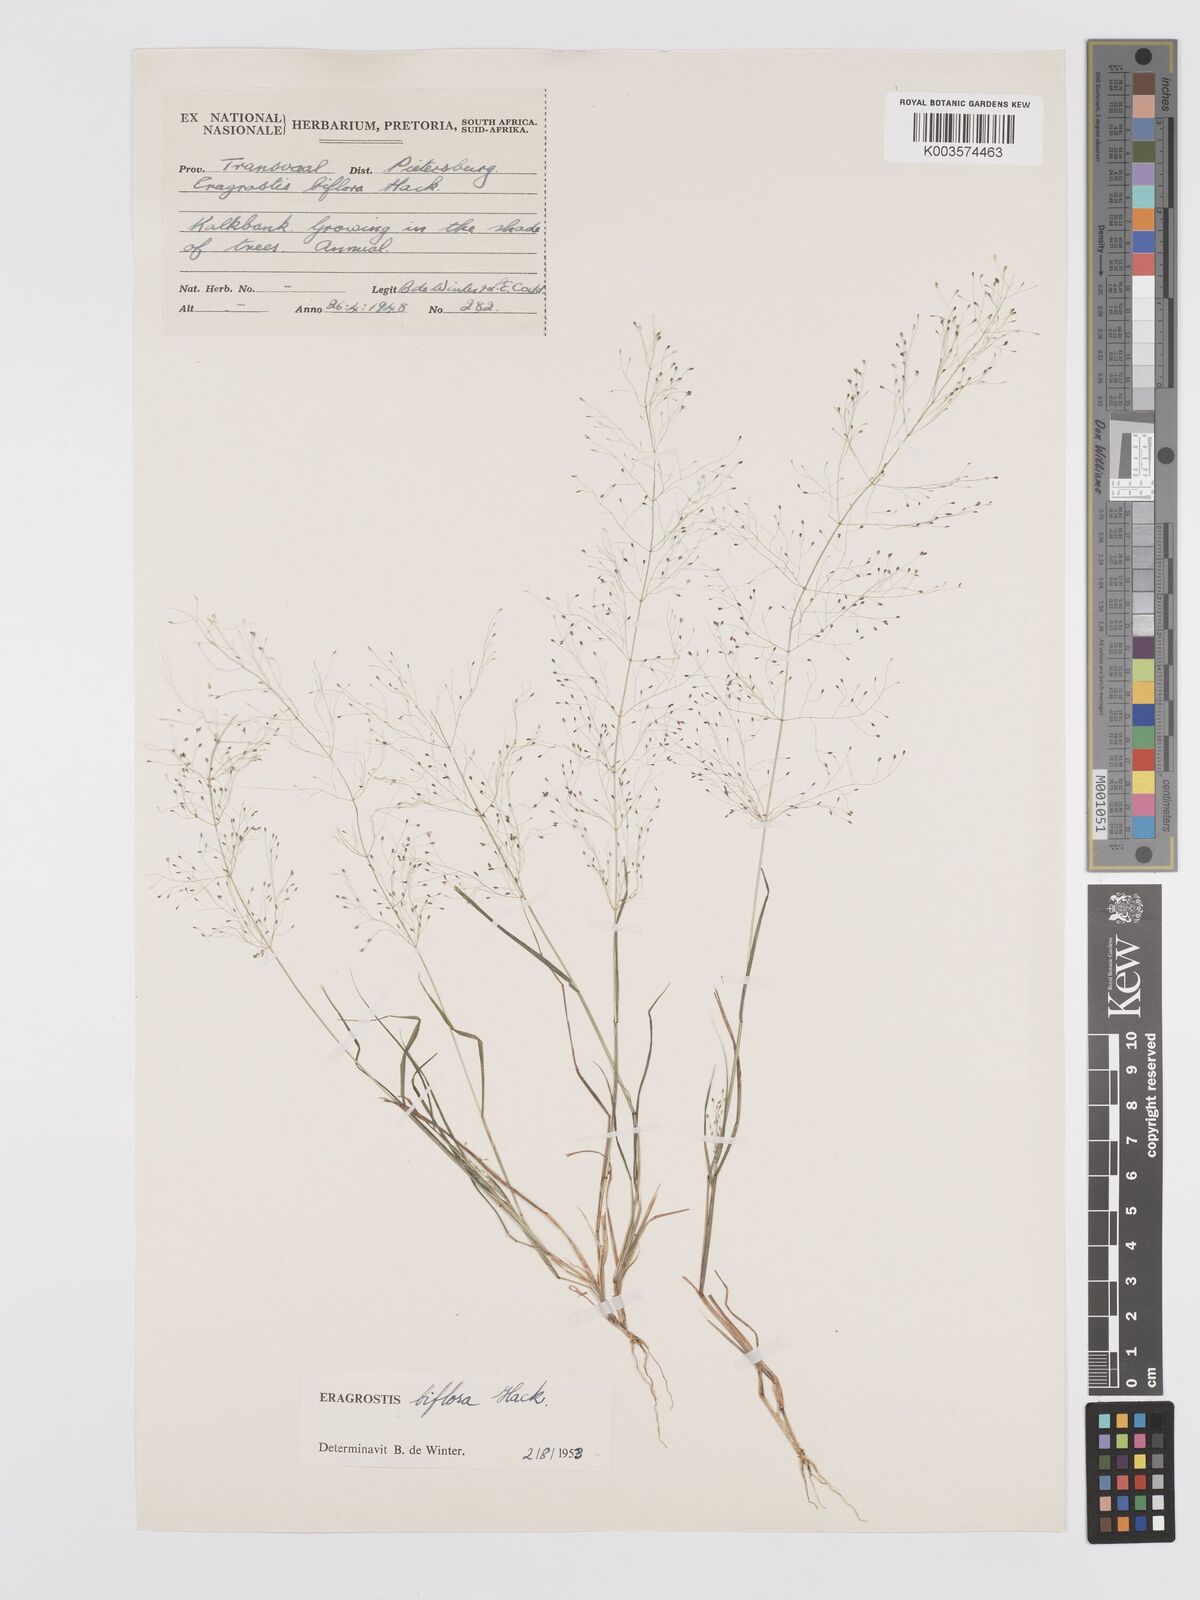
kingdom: Plantae
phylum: Tracheophyta
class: Liliopsida
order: Poales
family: Poaceae
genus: Eragrostis
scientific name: Eragrostis biflora
